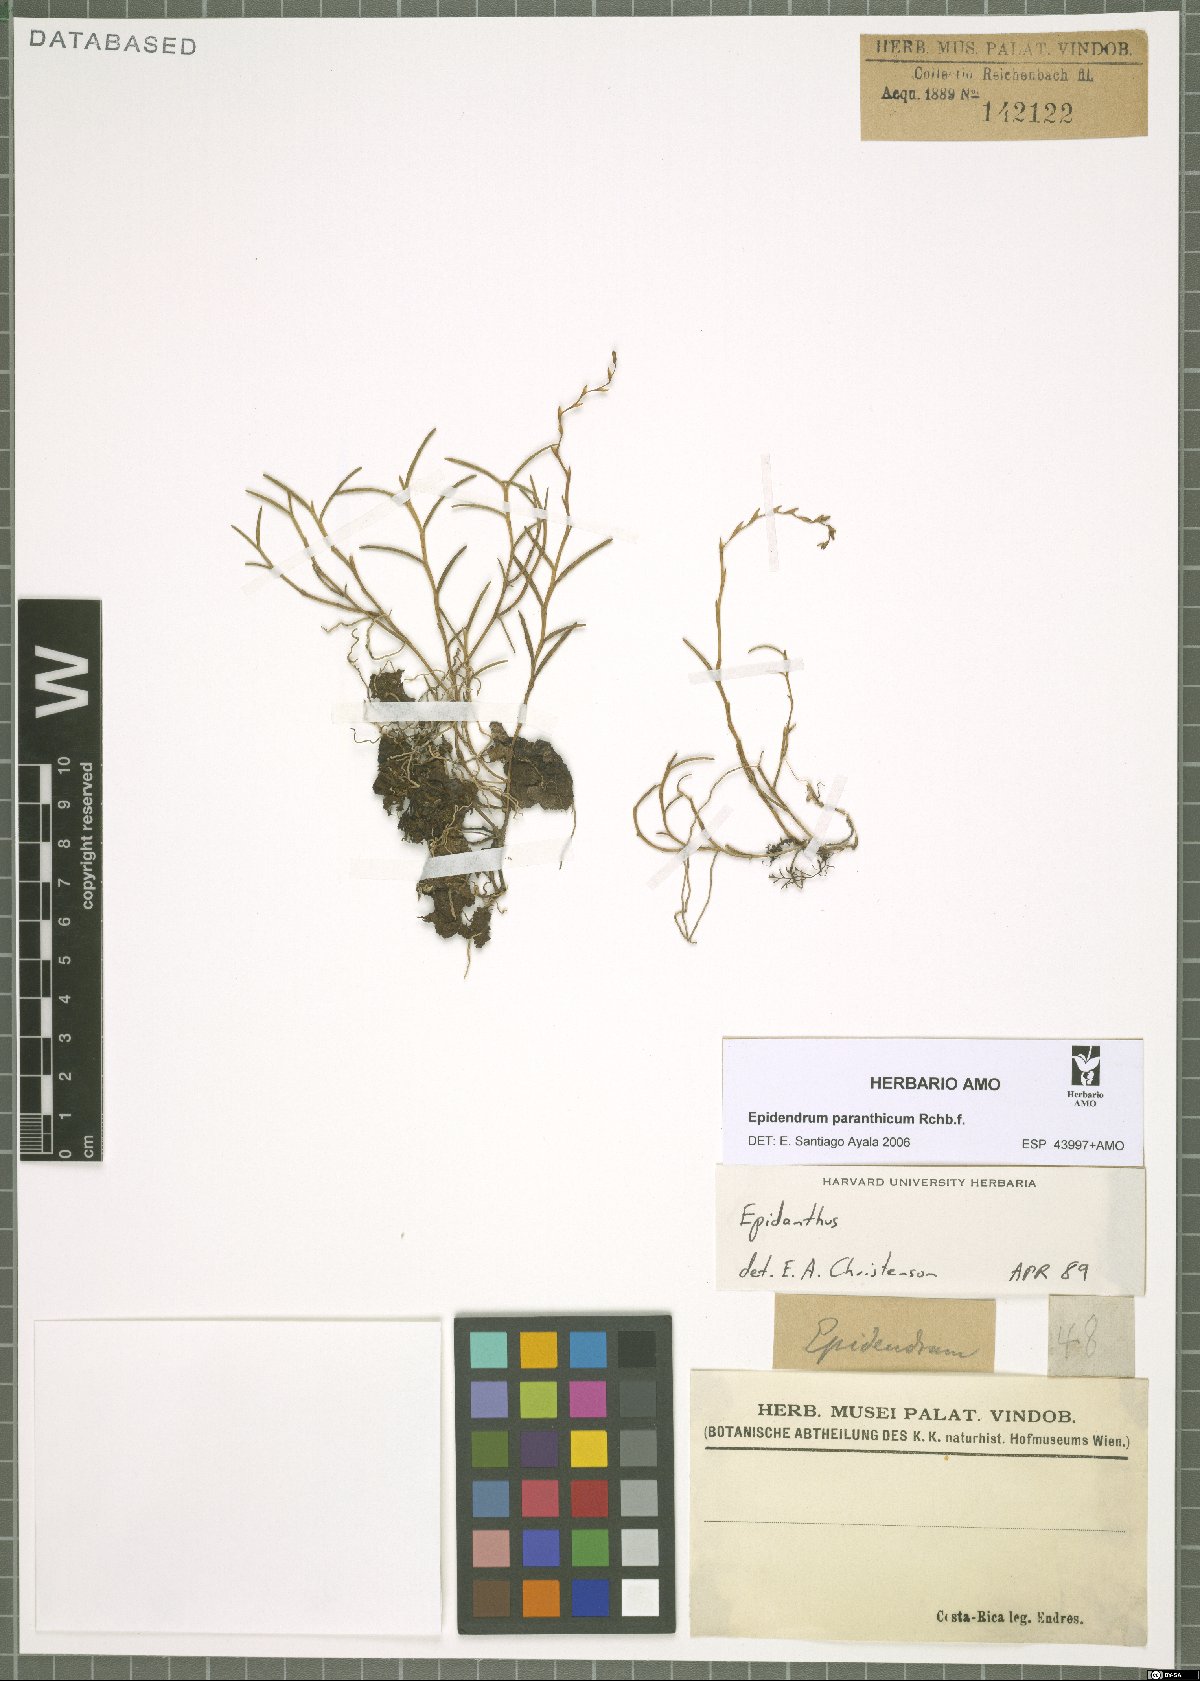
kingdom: Plantae
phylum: Tracheophyta
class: Liliopsida
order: Asparagales
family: Orchidaceae
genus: Epidendrum
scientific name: Epidendrum paranthicum
